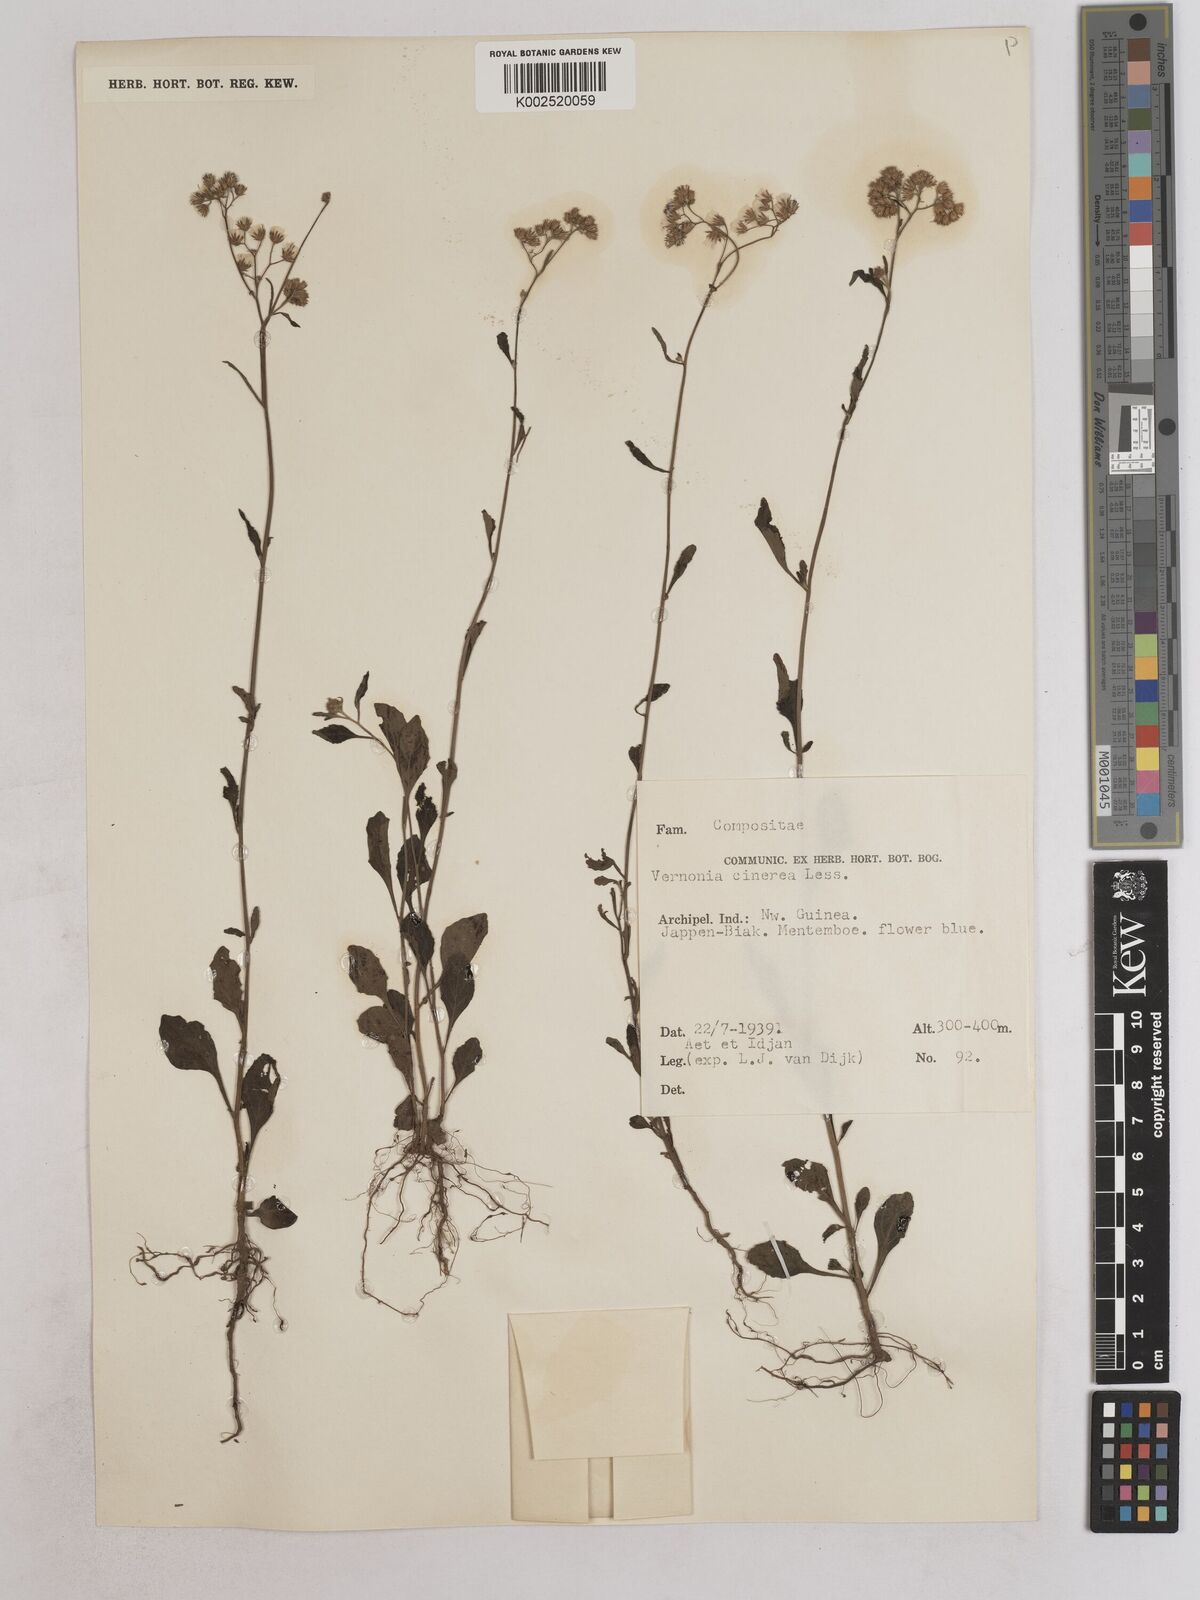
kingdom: Plantae
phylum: Tracheophyta
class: Magnoliopsida
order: Asterales
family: Asteraceae
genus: Cyanthillium
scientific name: Cyanthillium cinereum
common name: Little ironweed
